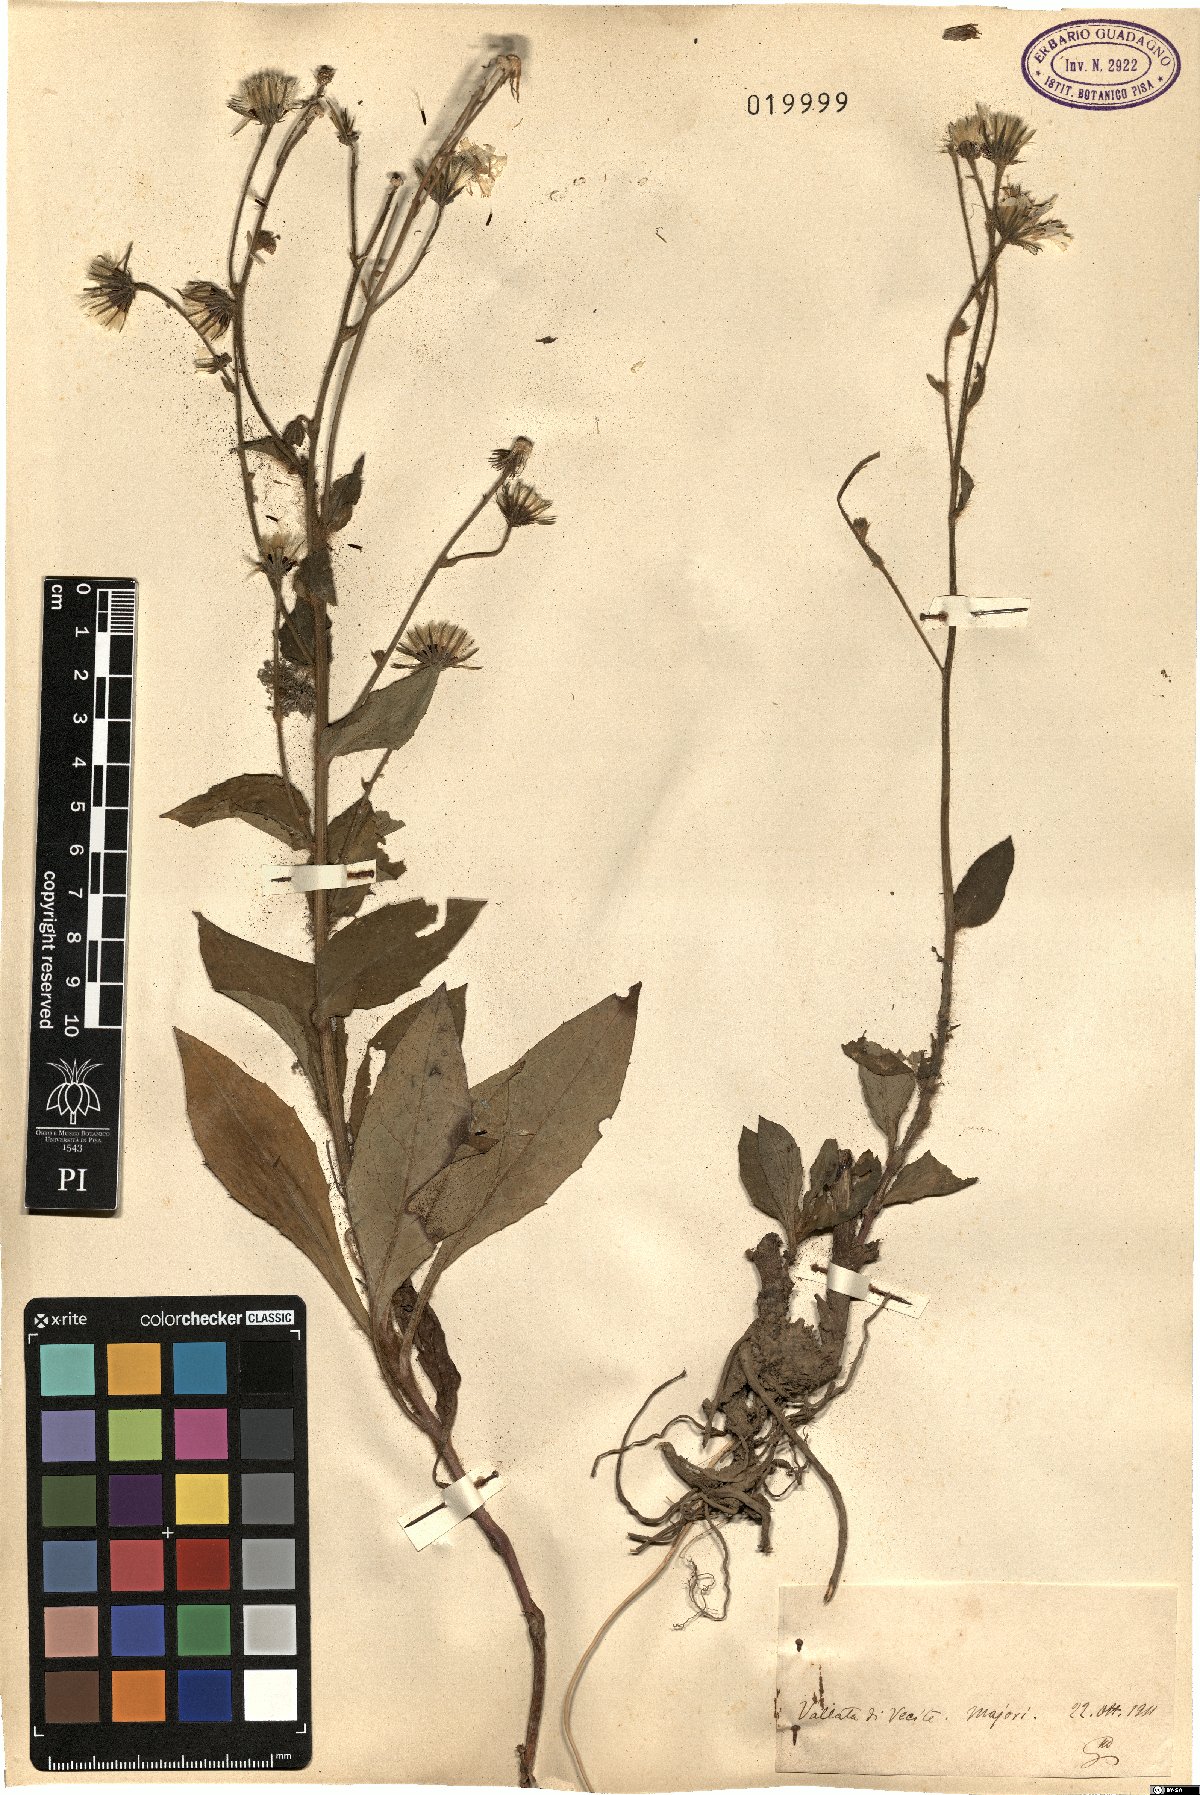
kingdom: Plantae
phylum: Tracheophyta
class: Magnoliopsida
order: Asterales
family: Asteraceae
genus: Hieracium
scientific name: Hieracium
